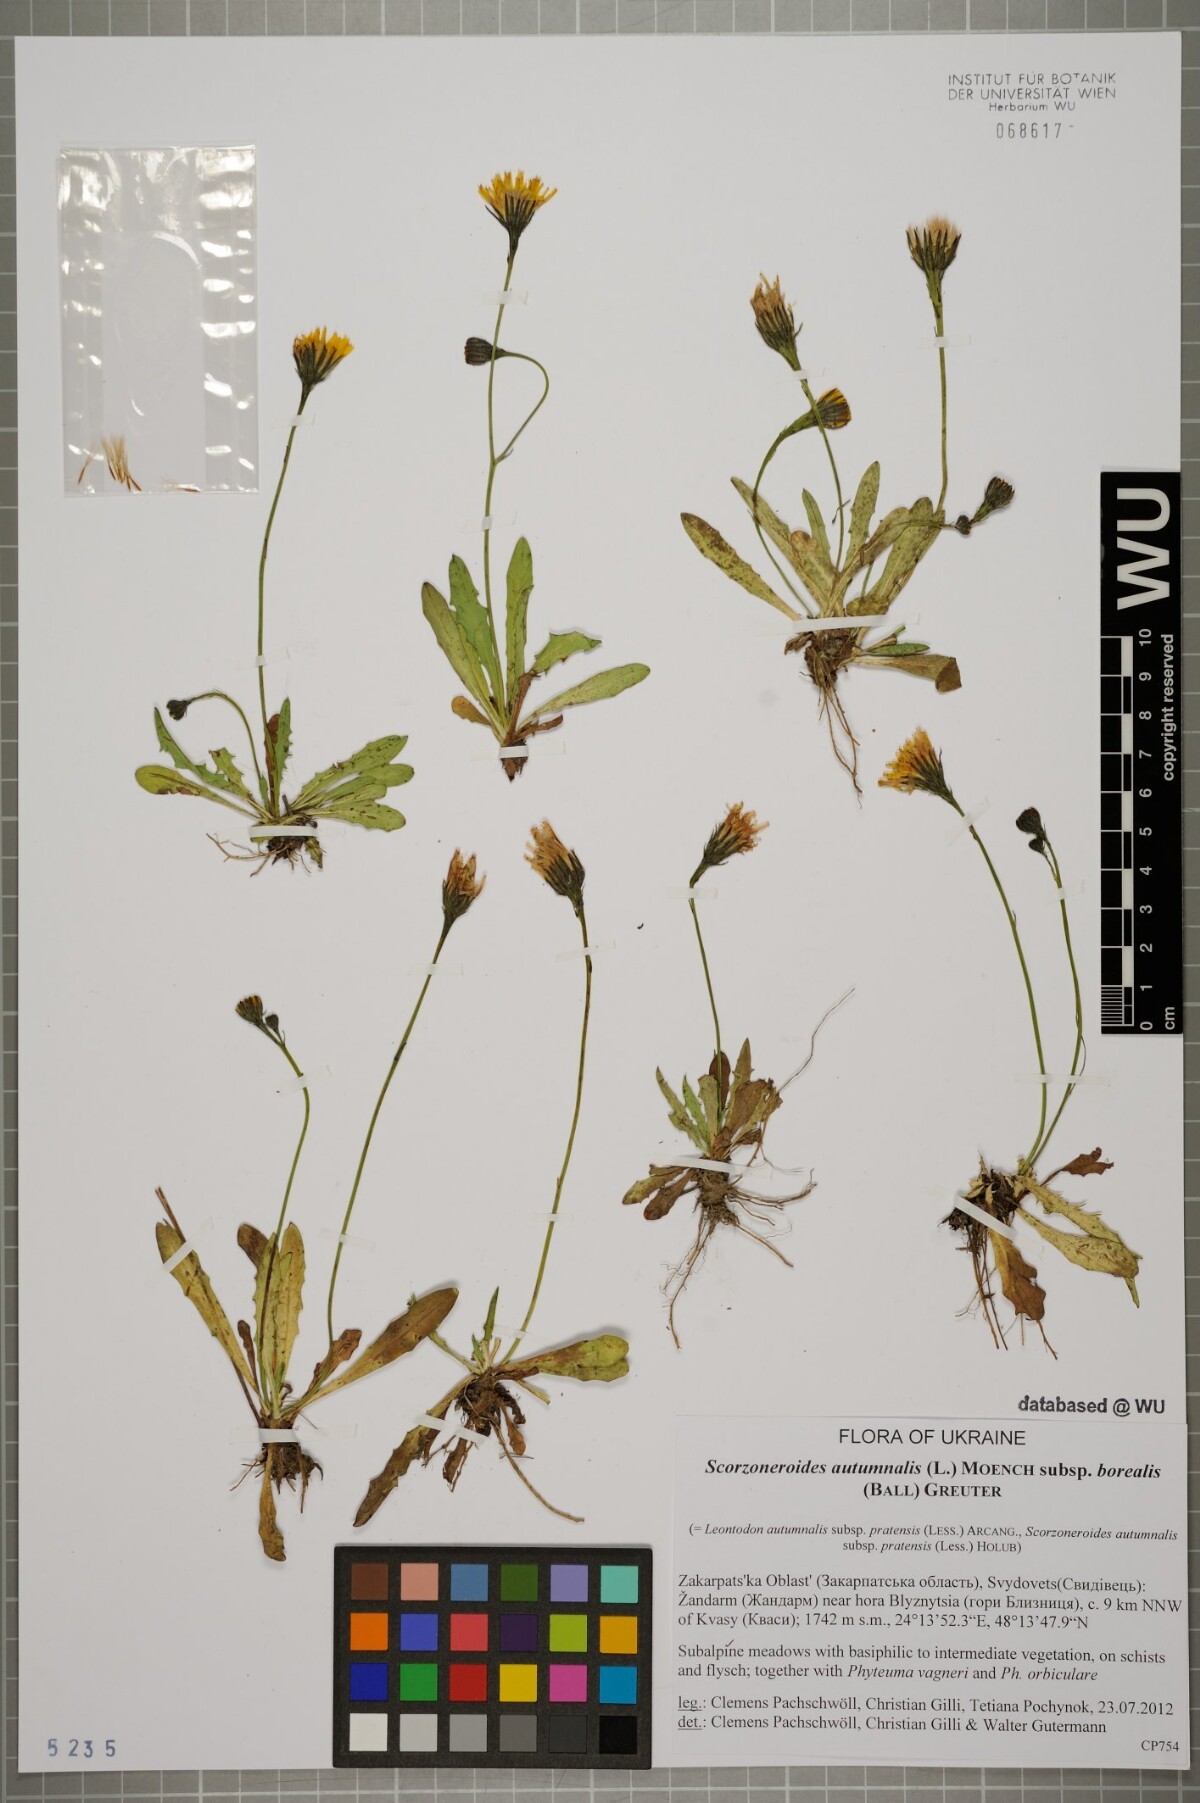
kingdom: Plantae
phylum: Tracheophyta
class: Magnoliopsida
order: Asterales
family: Asteraceae
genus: Scorzoneroides
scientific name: Scorzoneroides autumnalis
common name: Autumn hawkbit
